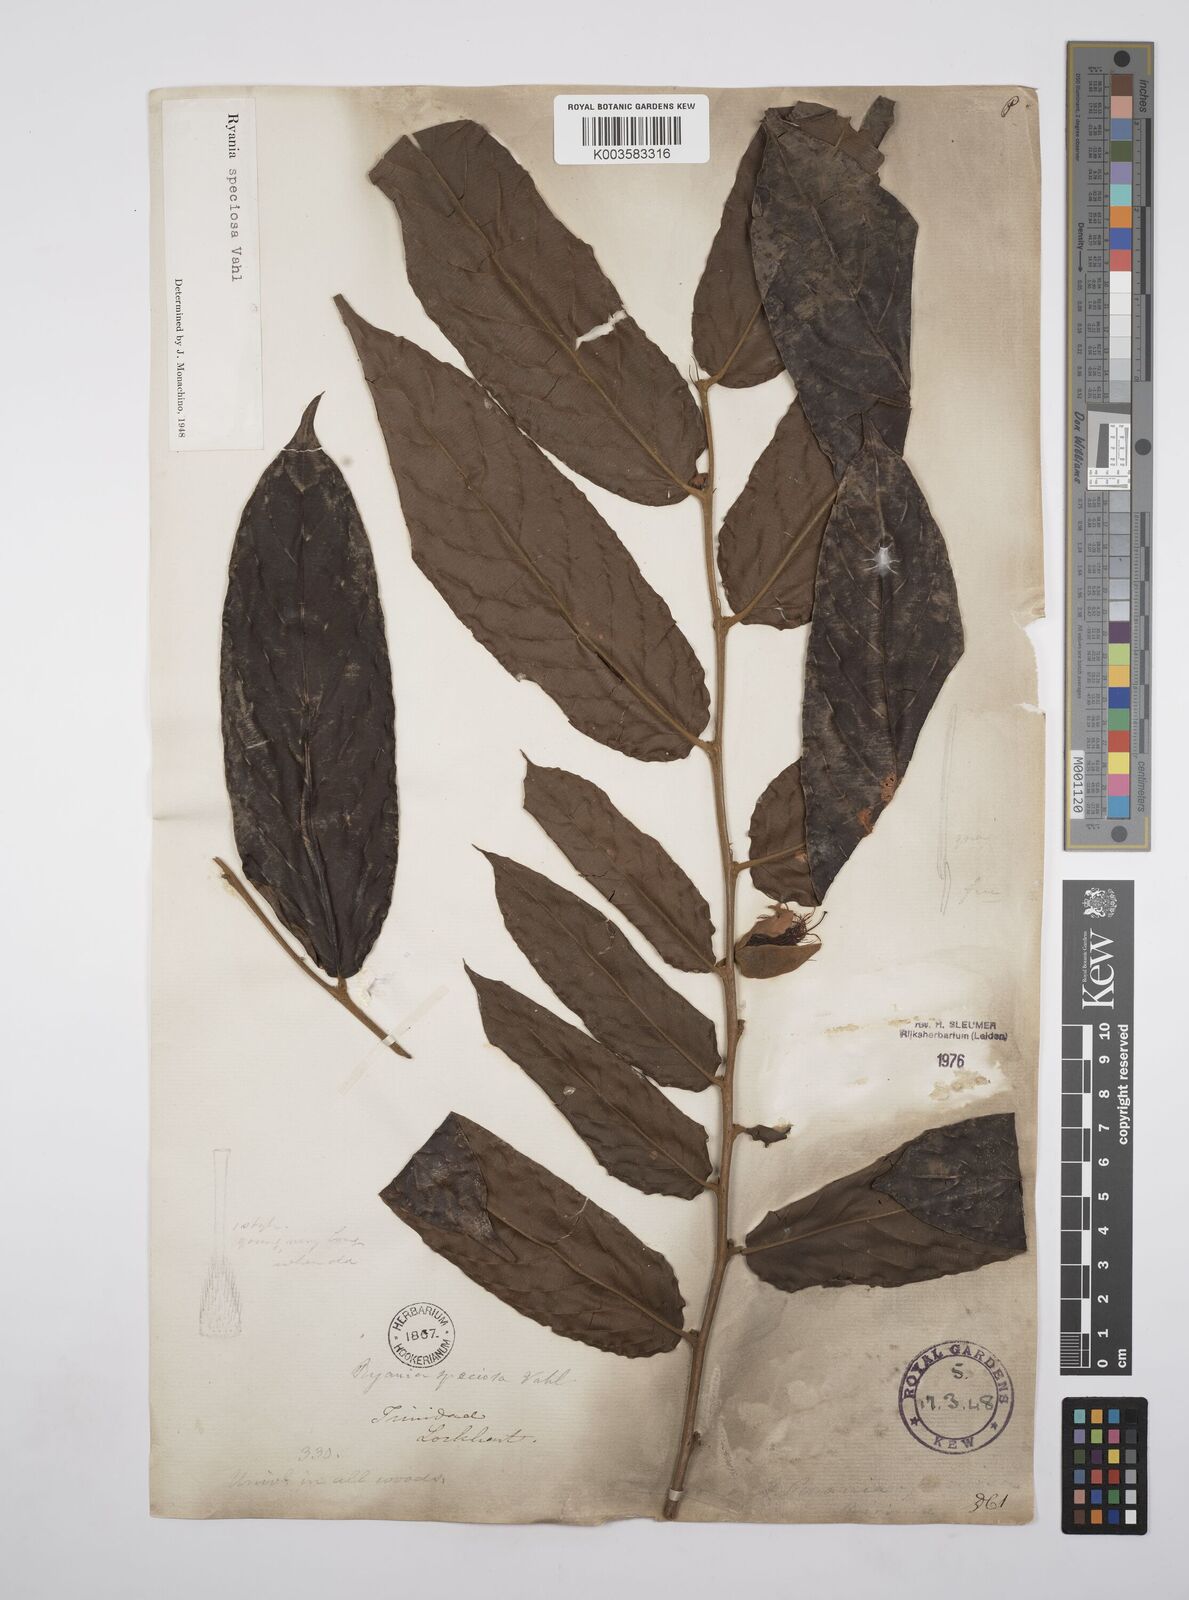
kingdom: Plantae
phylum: Tracheophyta
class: Magnoliopsida
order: Malpighiales
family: Salicaceae
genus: Ryania
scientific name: Ryania speciosa
